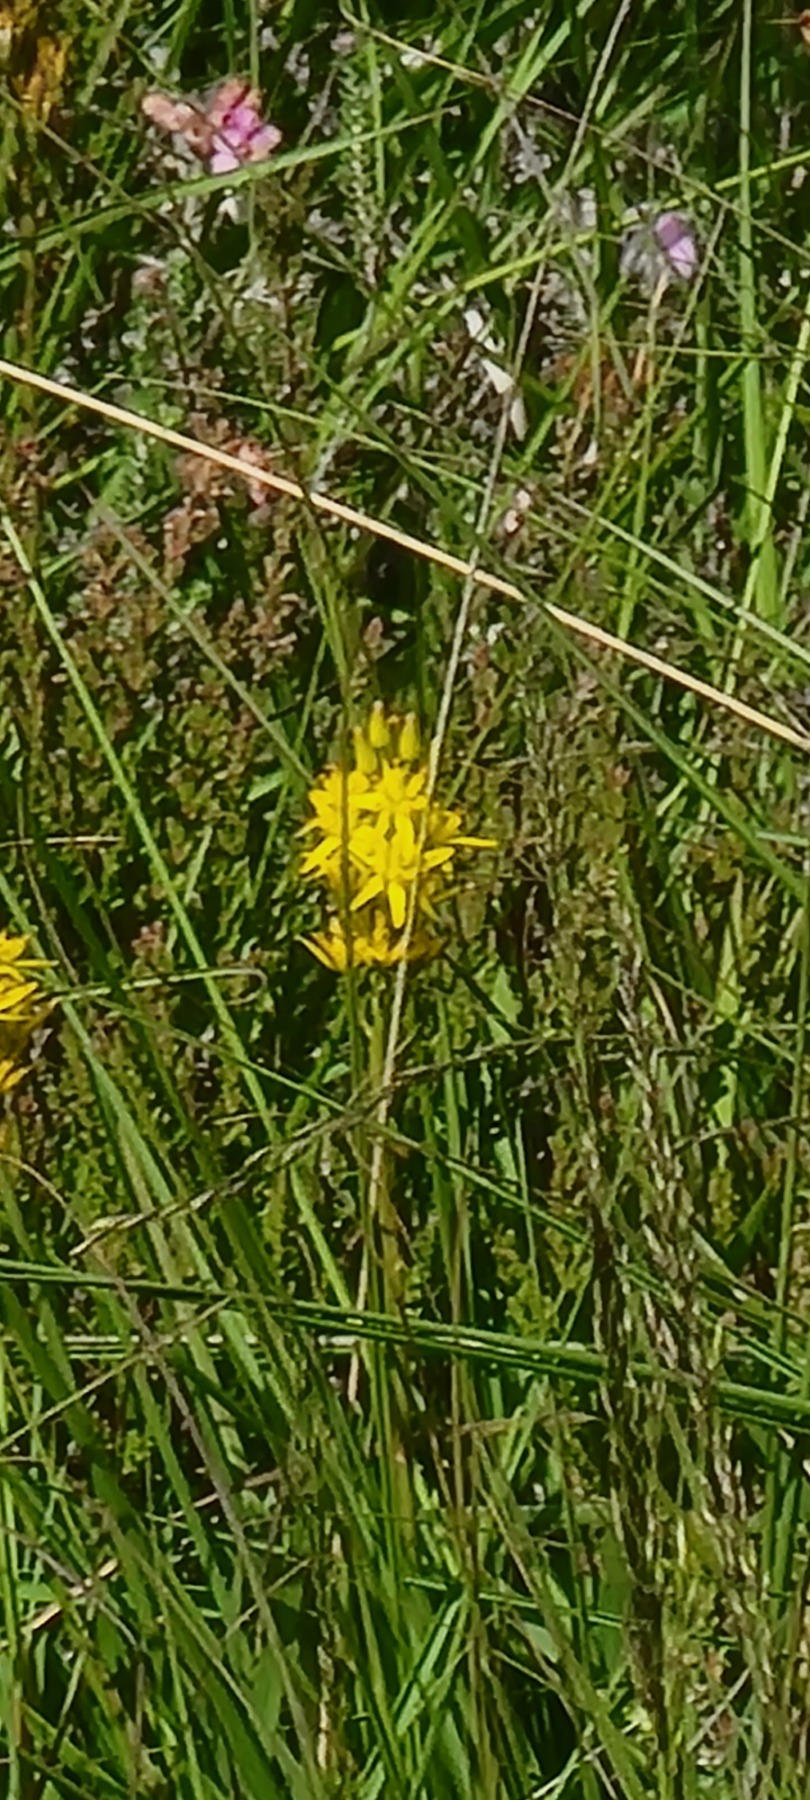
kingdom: Plantae
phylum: Tracheophyta
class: Liliopsida
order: Dioscoreales
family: Nartheciaceae
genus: Narthecium
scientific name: Narthecium ossifragum
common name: Benbræk
